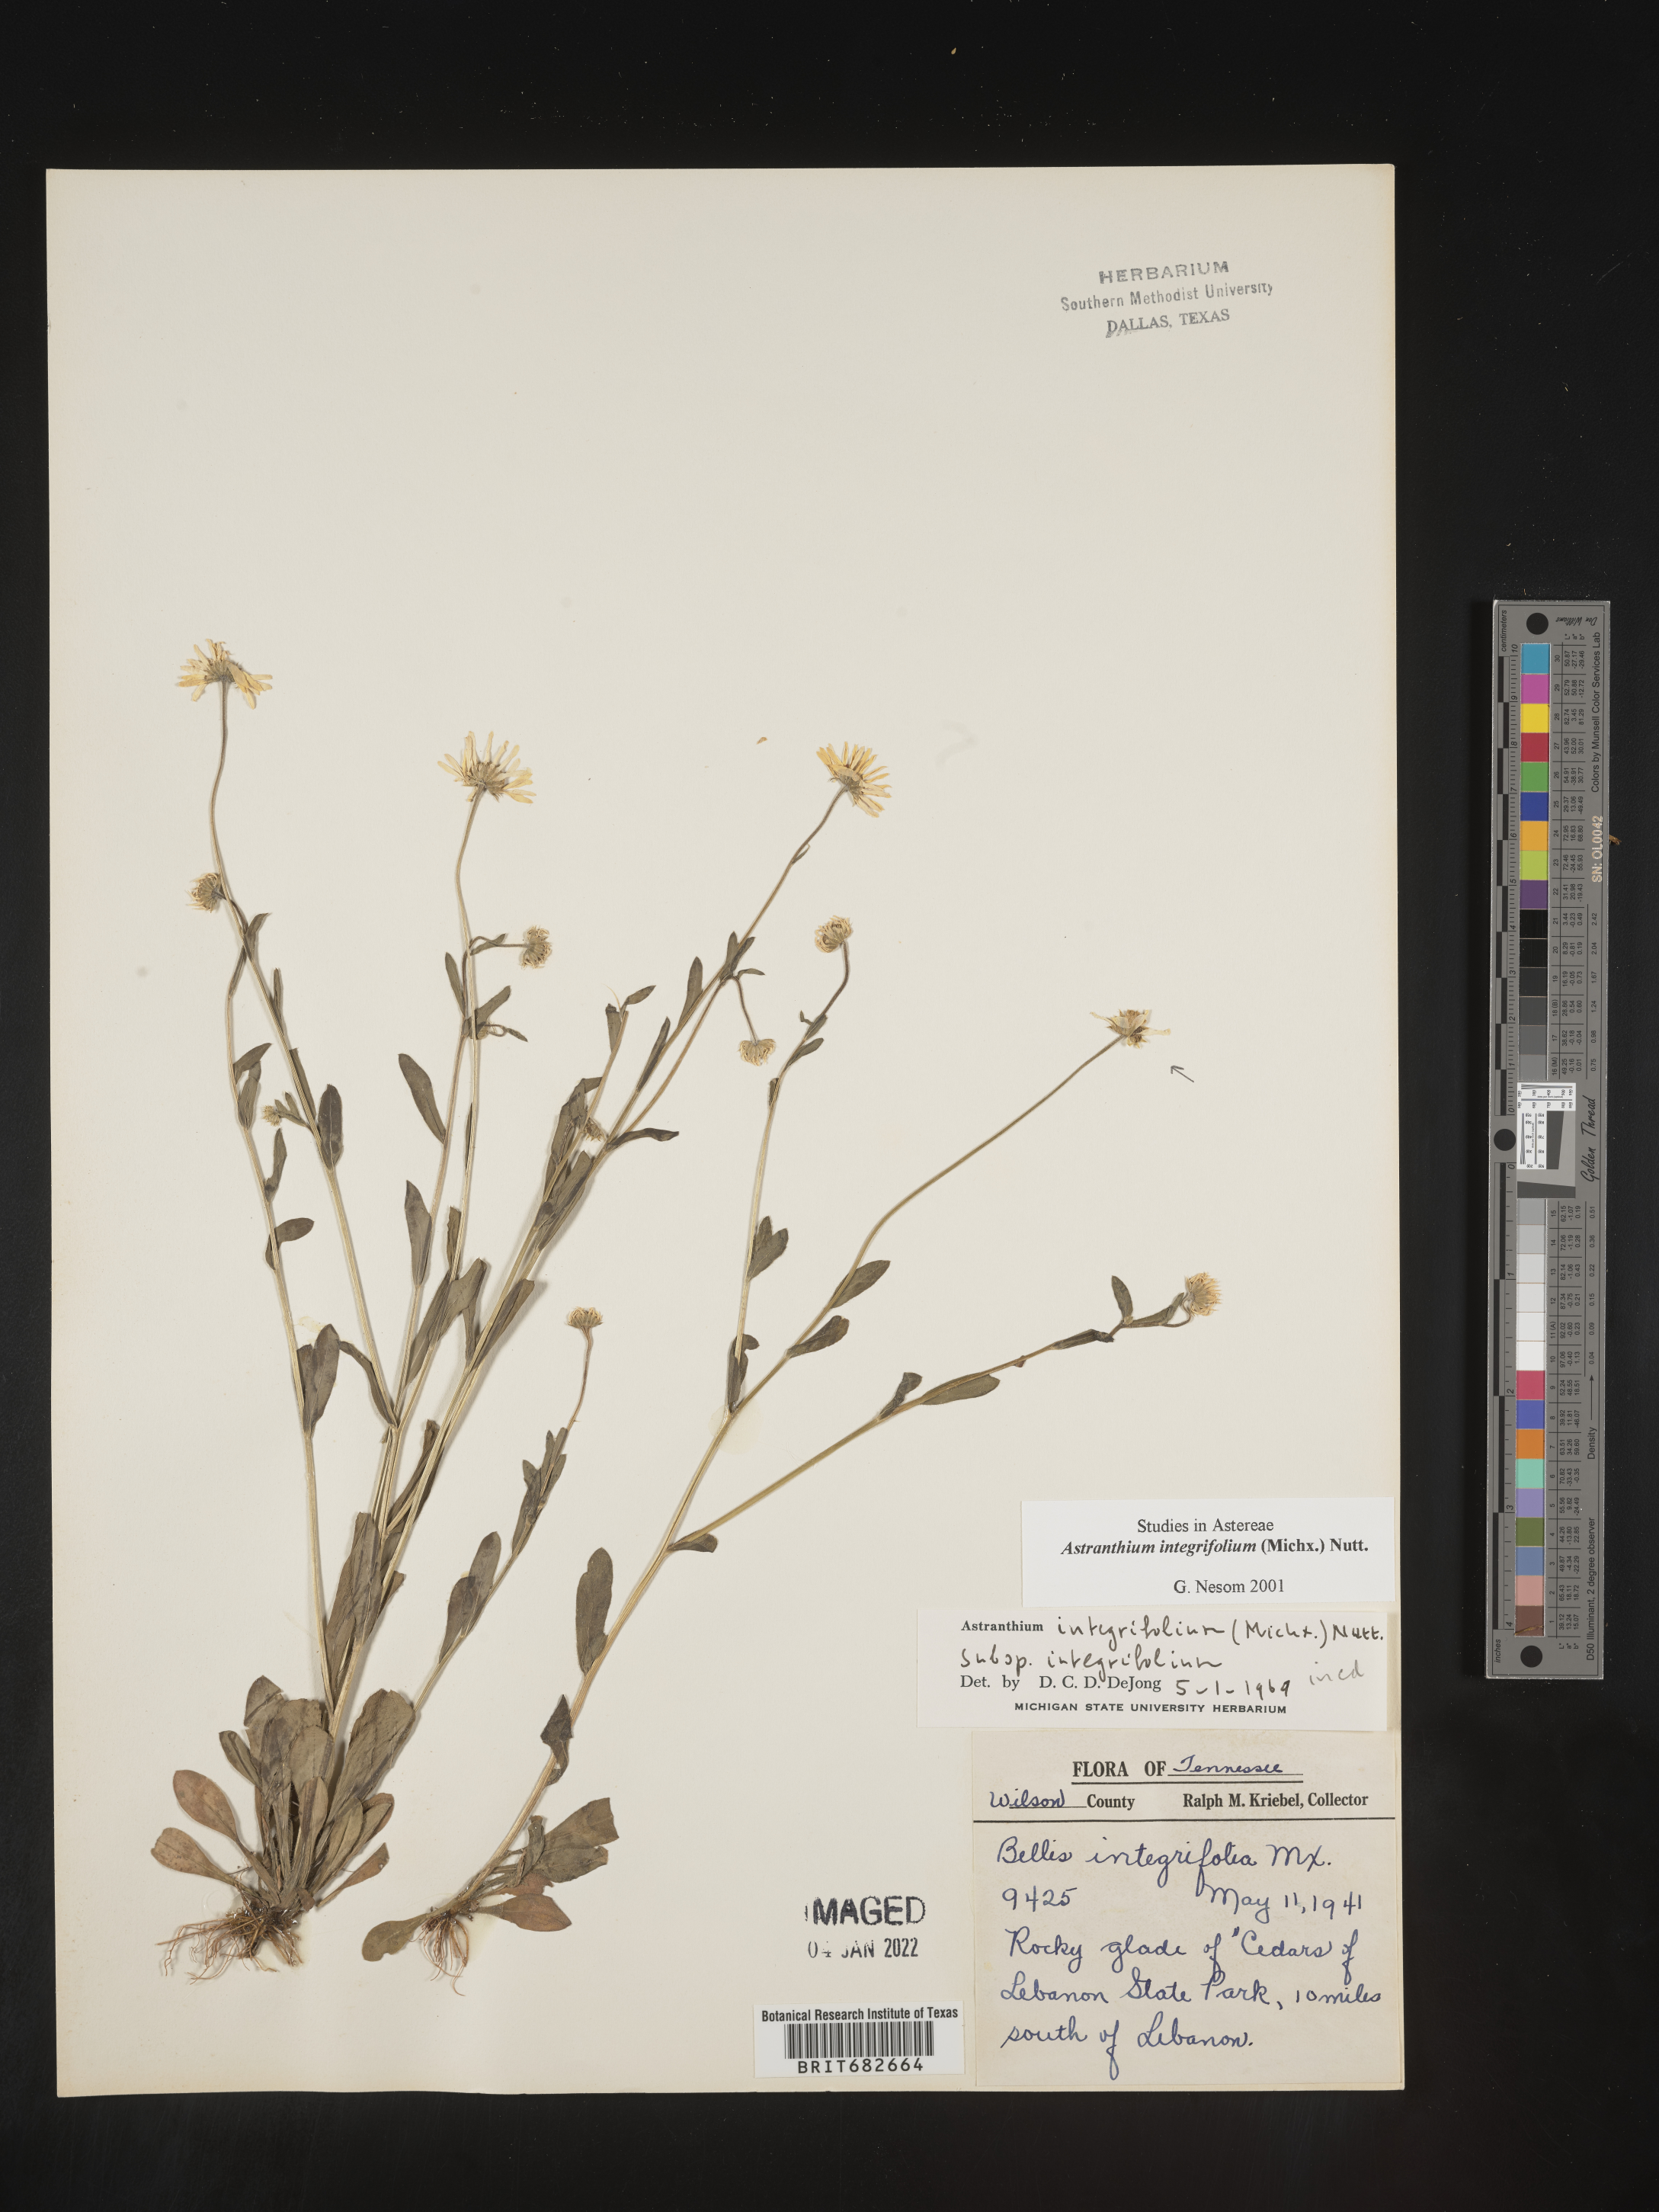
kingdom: Plantae
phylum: Tracheophyta
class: Magnoliopsida
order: Asterales
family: Asteraceae
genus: Astranthium
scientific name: Astranthium
